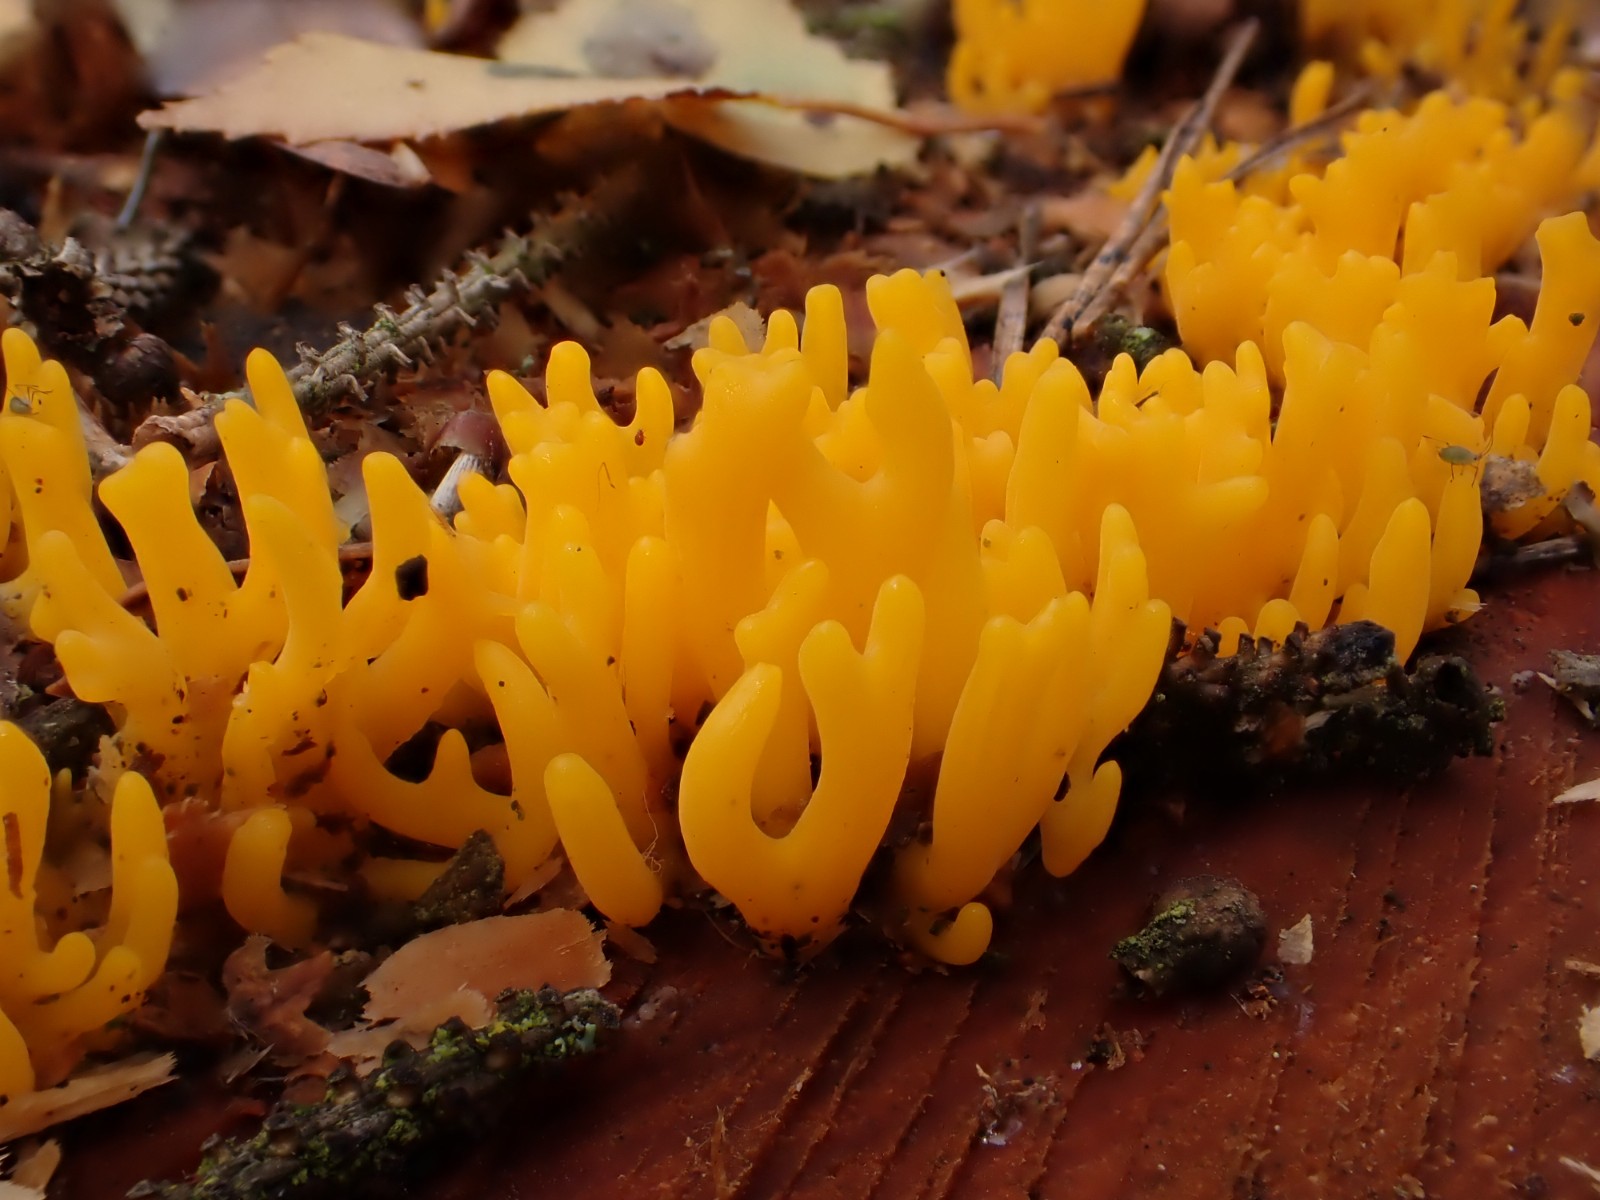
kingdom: Fungi
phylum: Basidiomycota
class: Dacrymycetes
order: Dacrymycetales
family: Dacrymycetaceae
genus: Calocera
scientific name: Calocera viscosa
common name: almindelig guldgaffel
